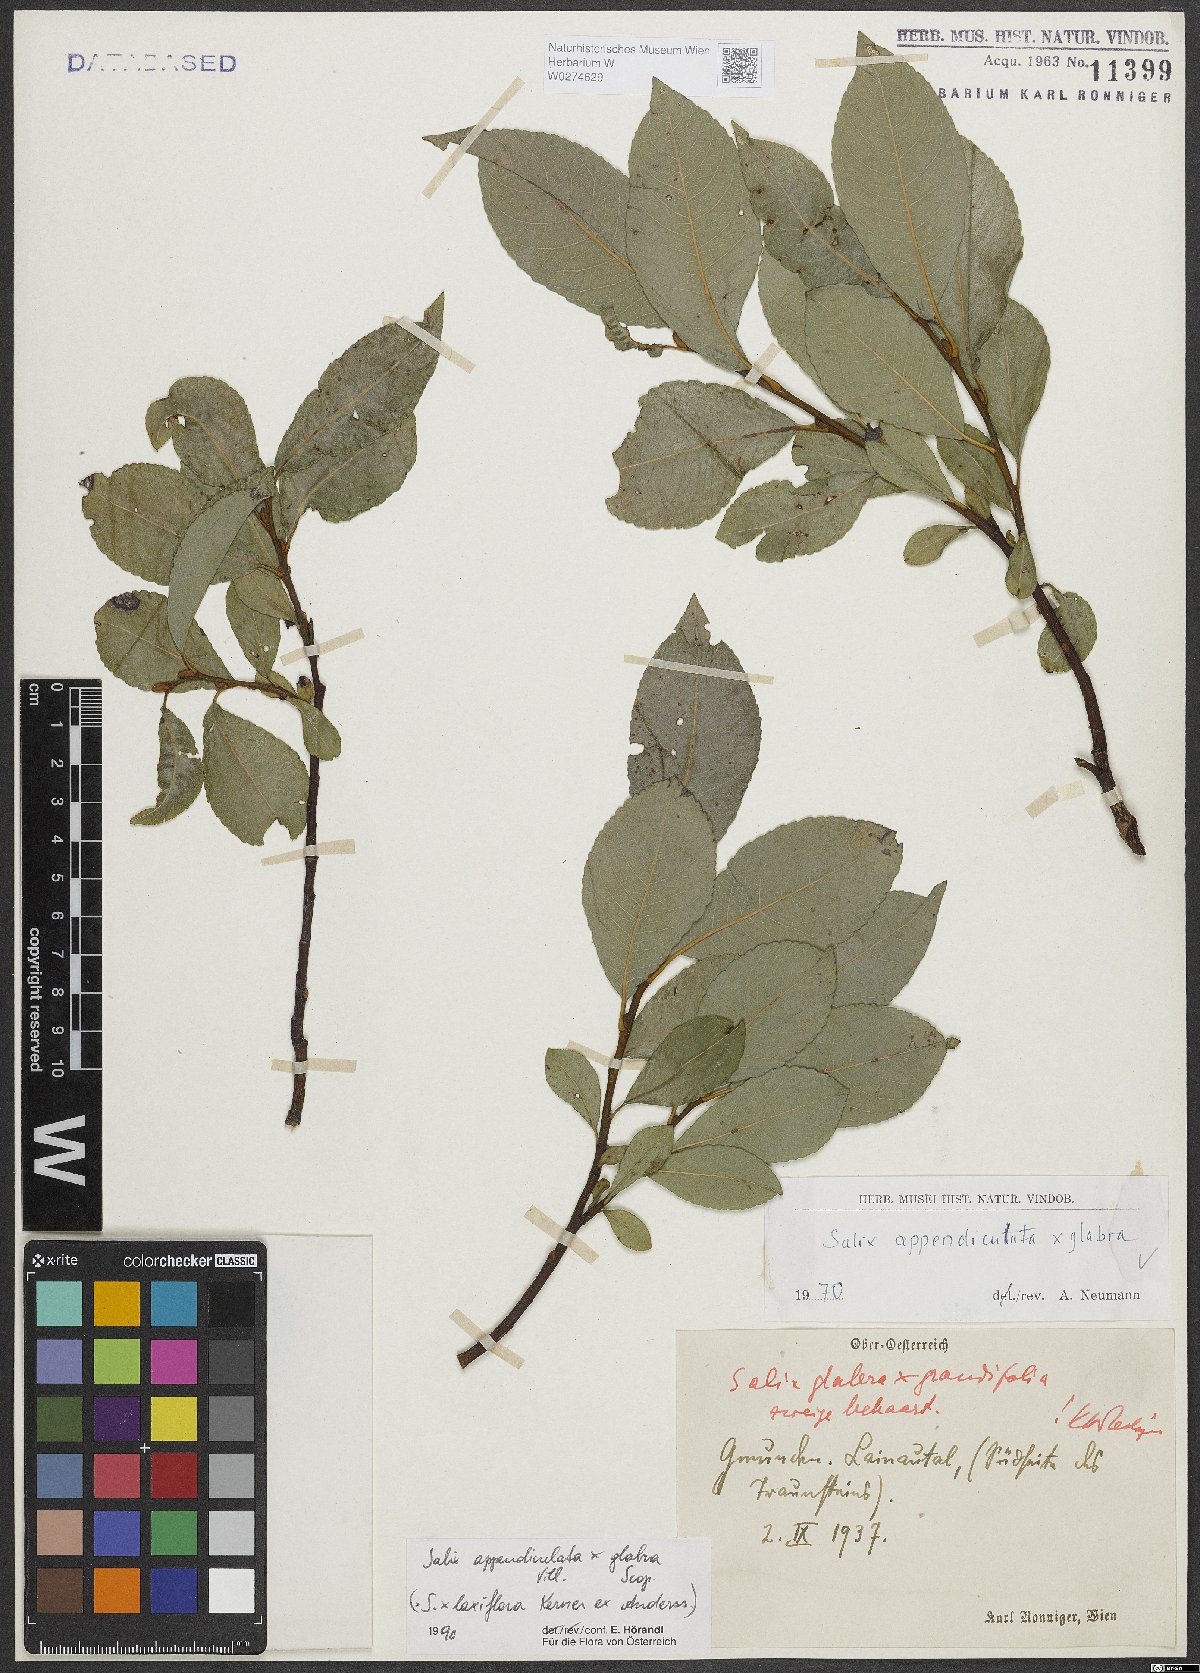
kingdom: Plantae
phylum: Tracheophyta
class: Magnoliopsida
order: Malpighiales
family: Salicaceae
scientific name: Salicaceae
